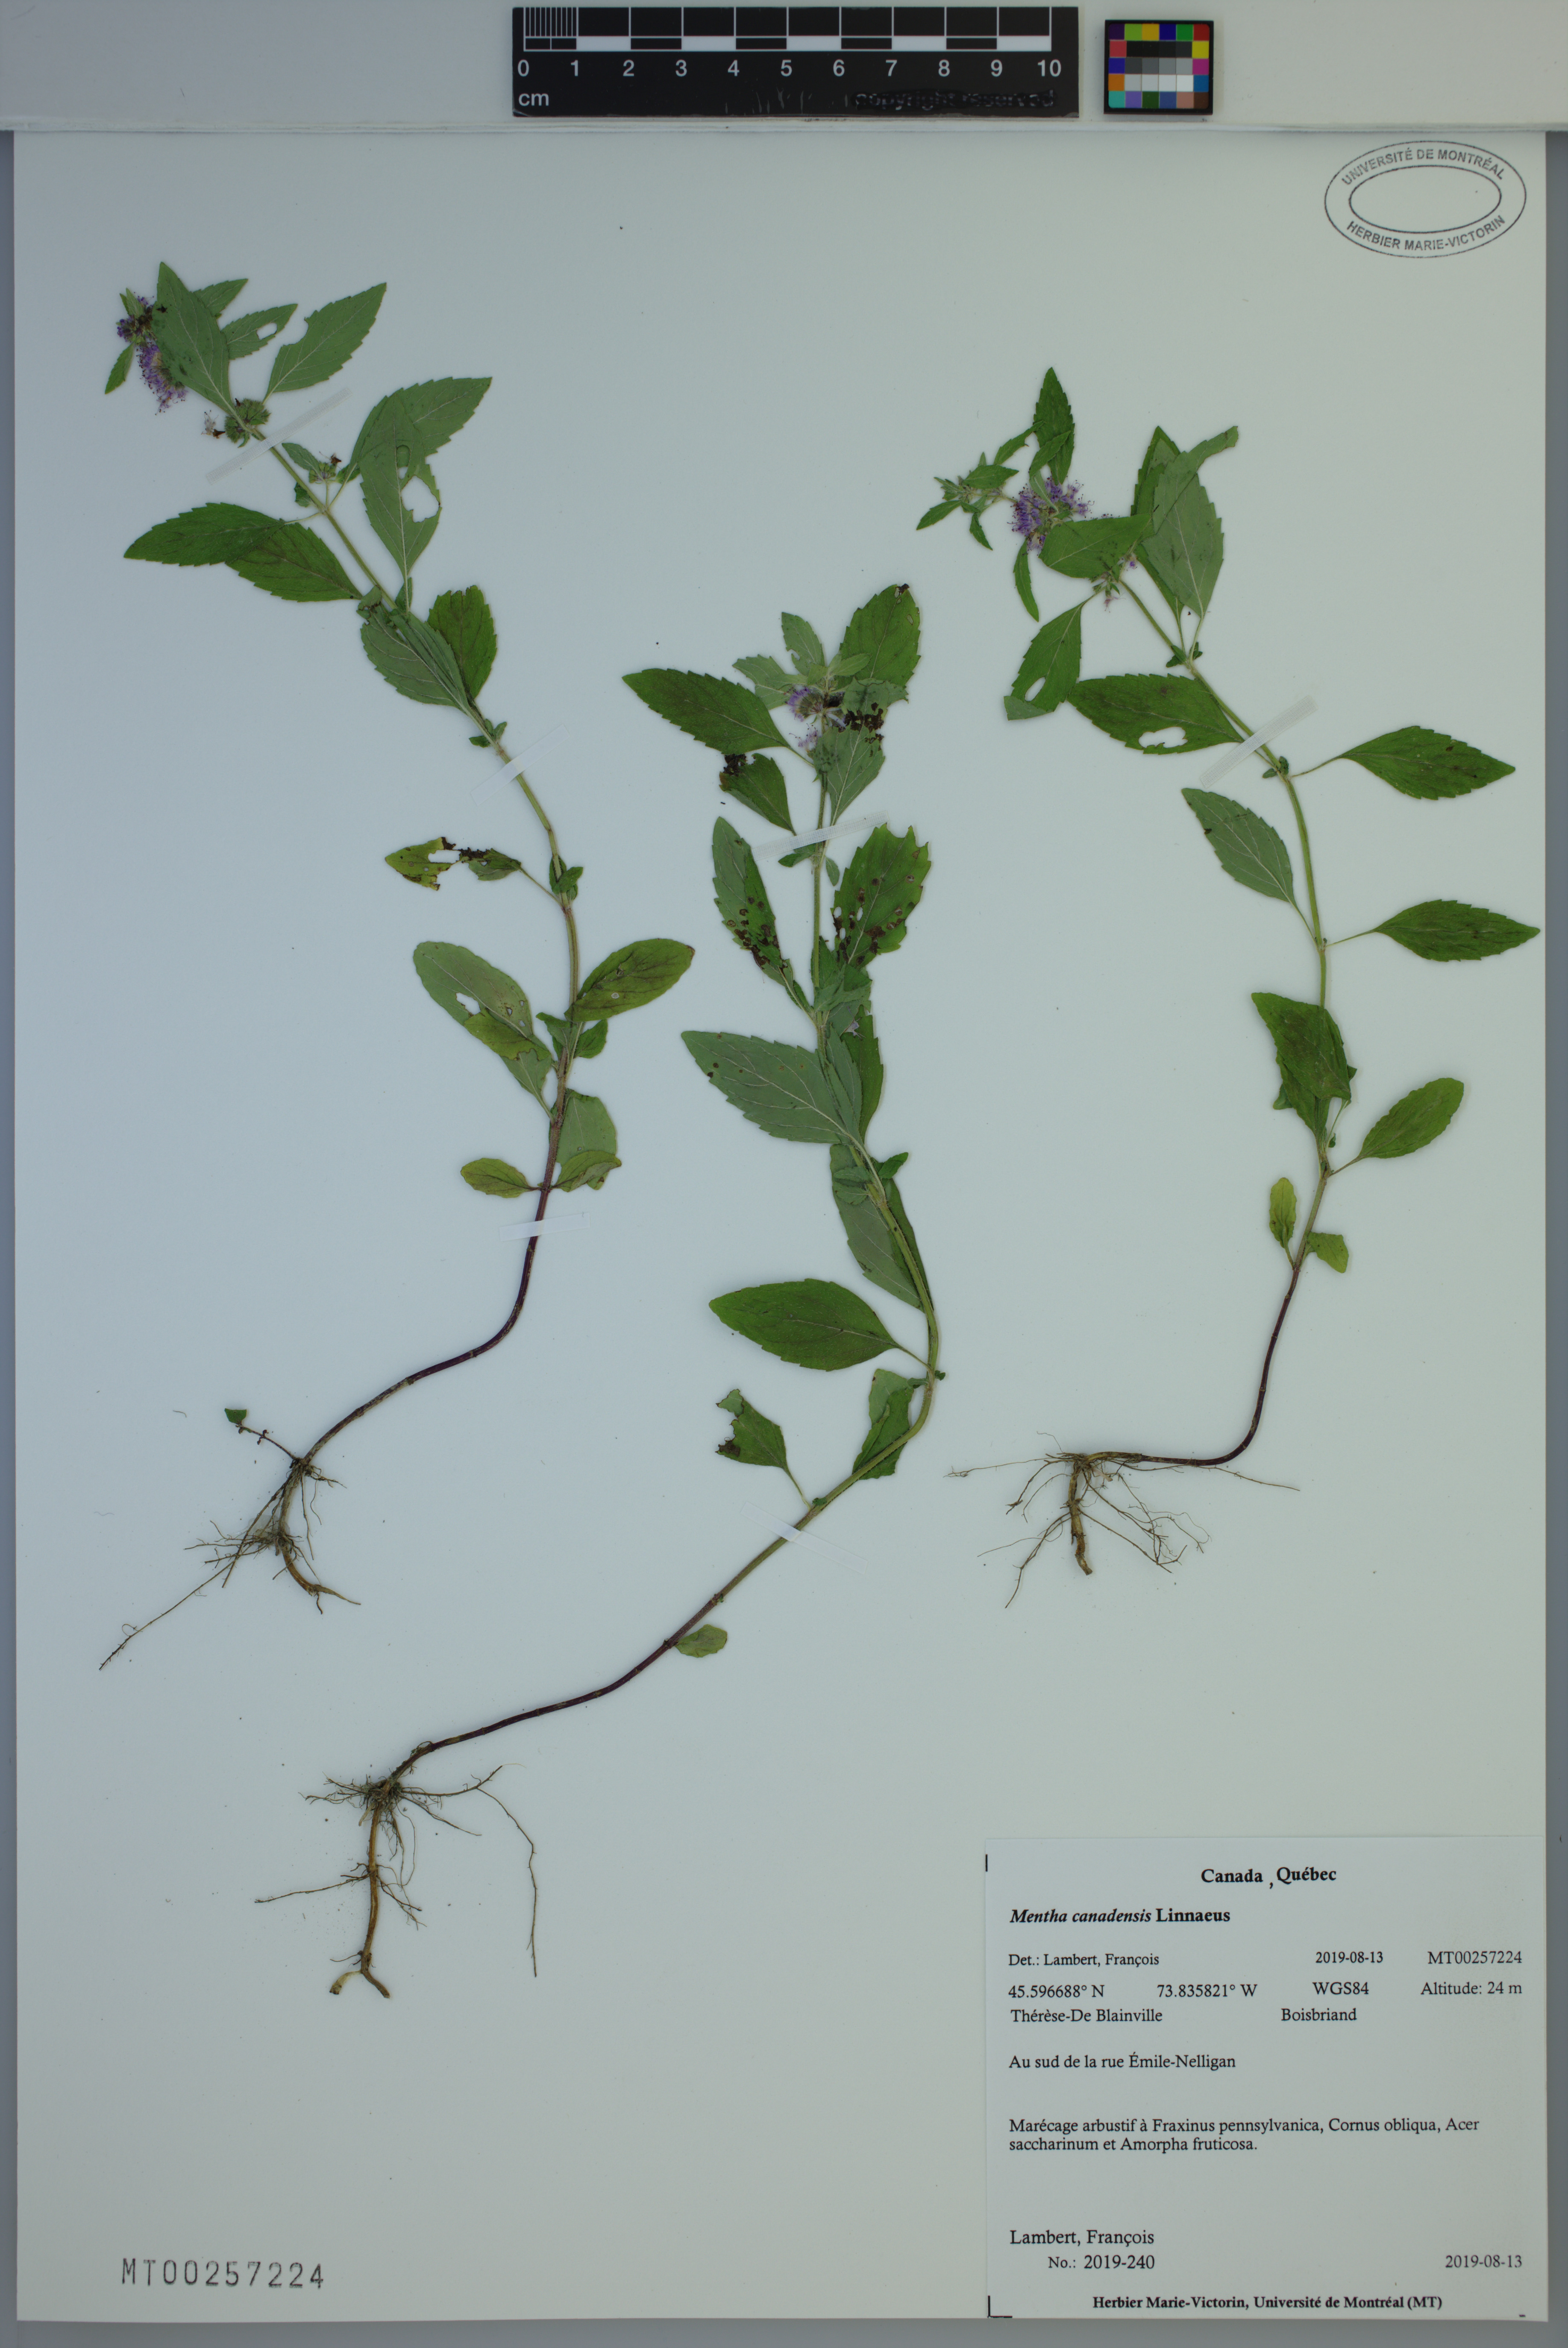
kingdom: Plantae
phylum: Tracheophyta
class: Magnoliopsida
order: Lamiales
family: Lamiaceae
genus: Mentha
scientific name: Mentha canadensis
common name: American corn mint
